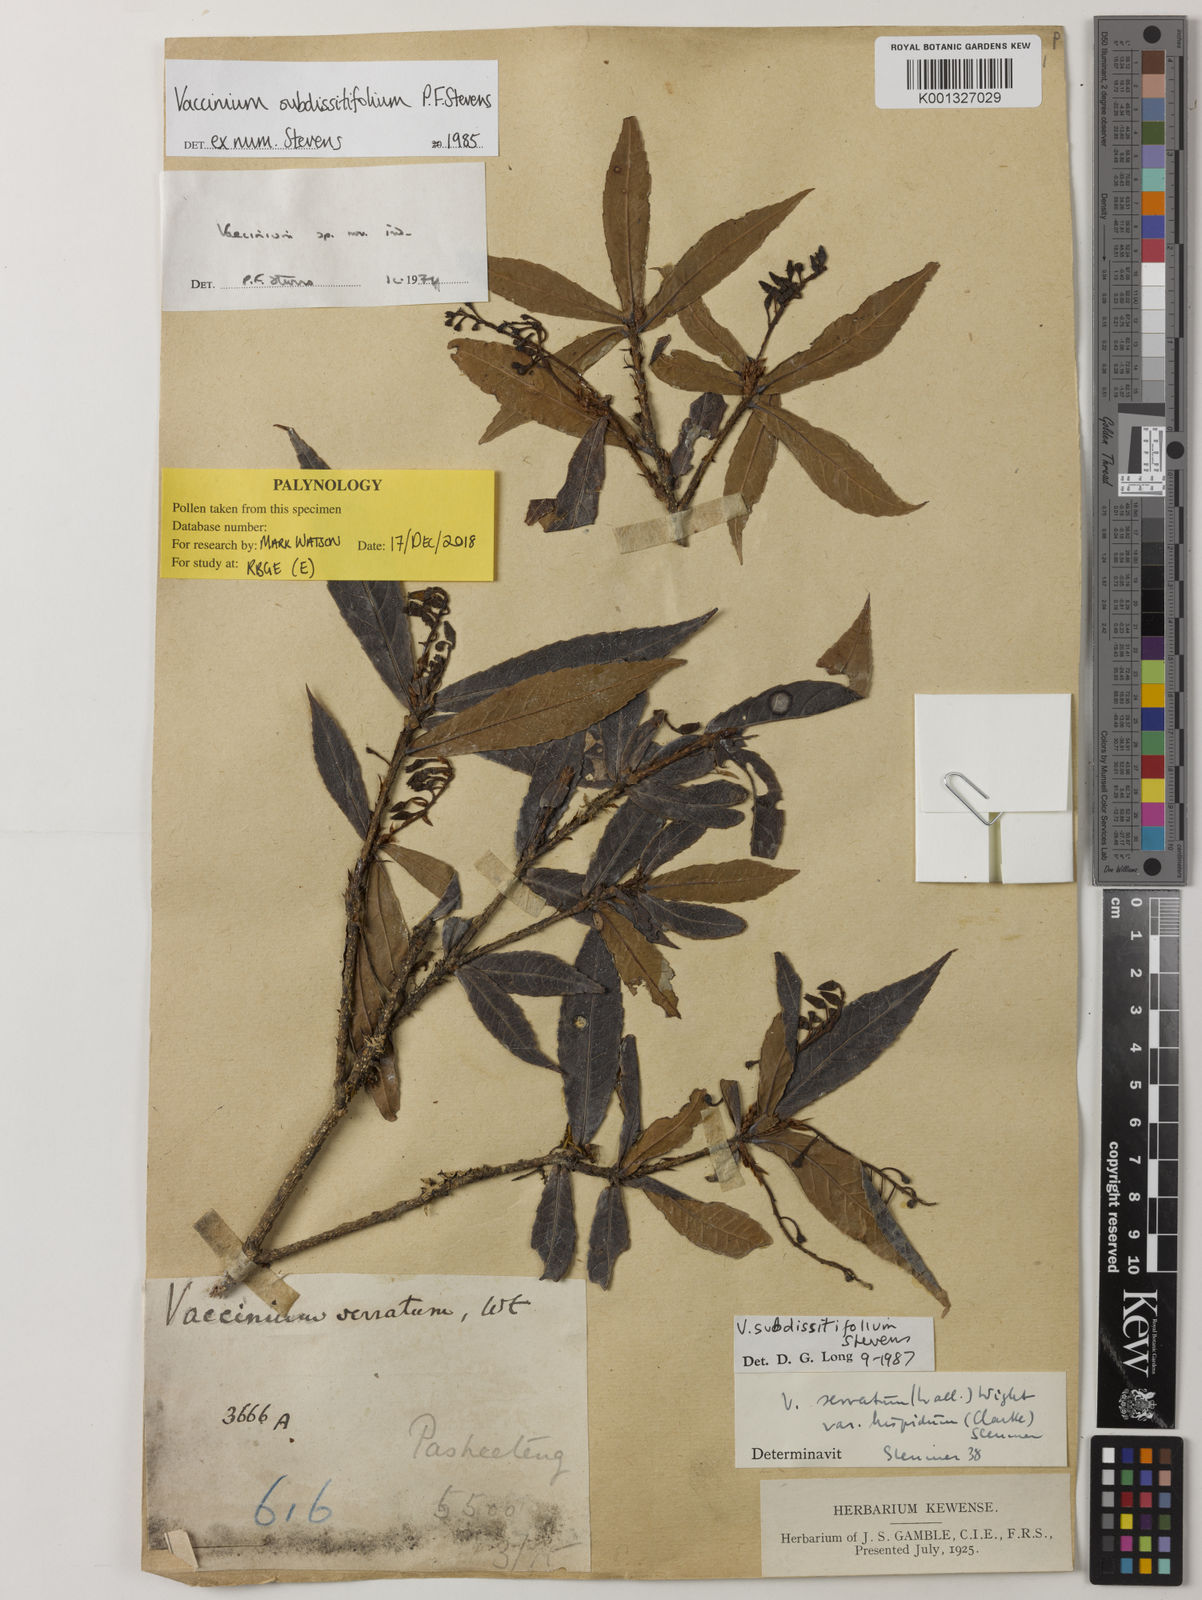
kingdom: Plantae
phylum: Tracheophyta
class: Magnoliopsida
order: Ericales
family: Ericaceae
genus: Vaccinium
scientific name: Vaccinium subdissitifolium
